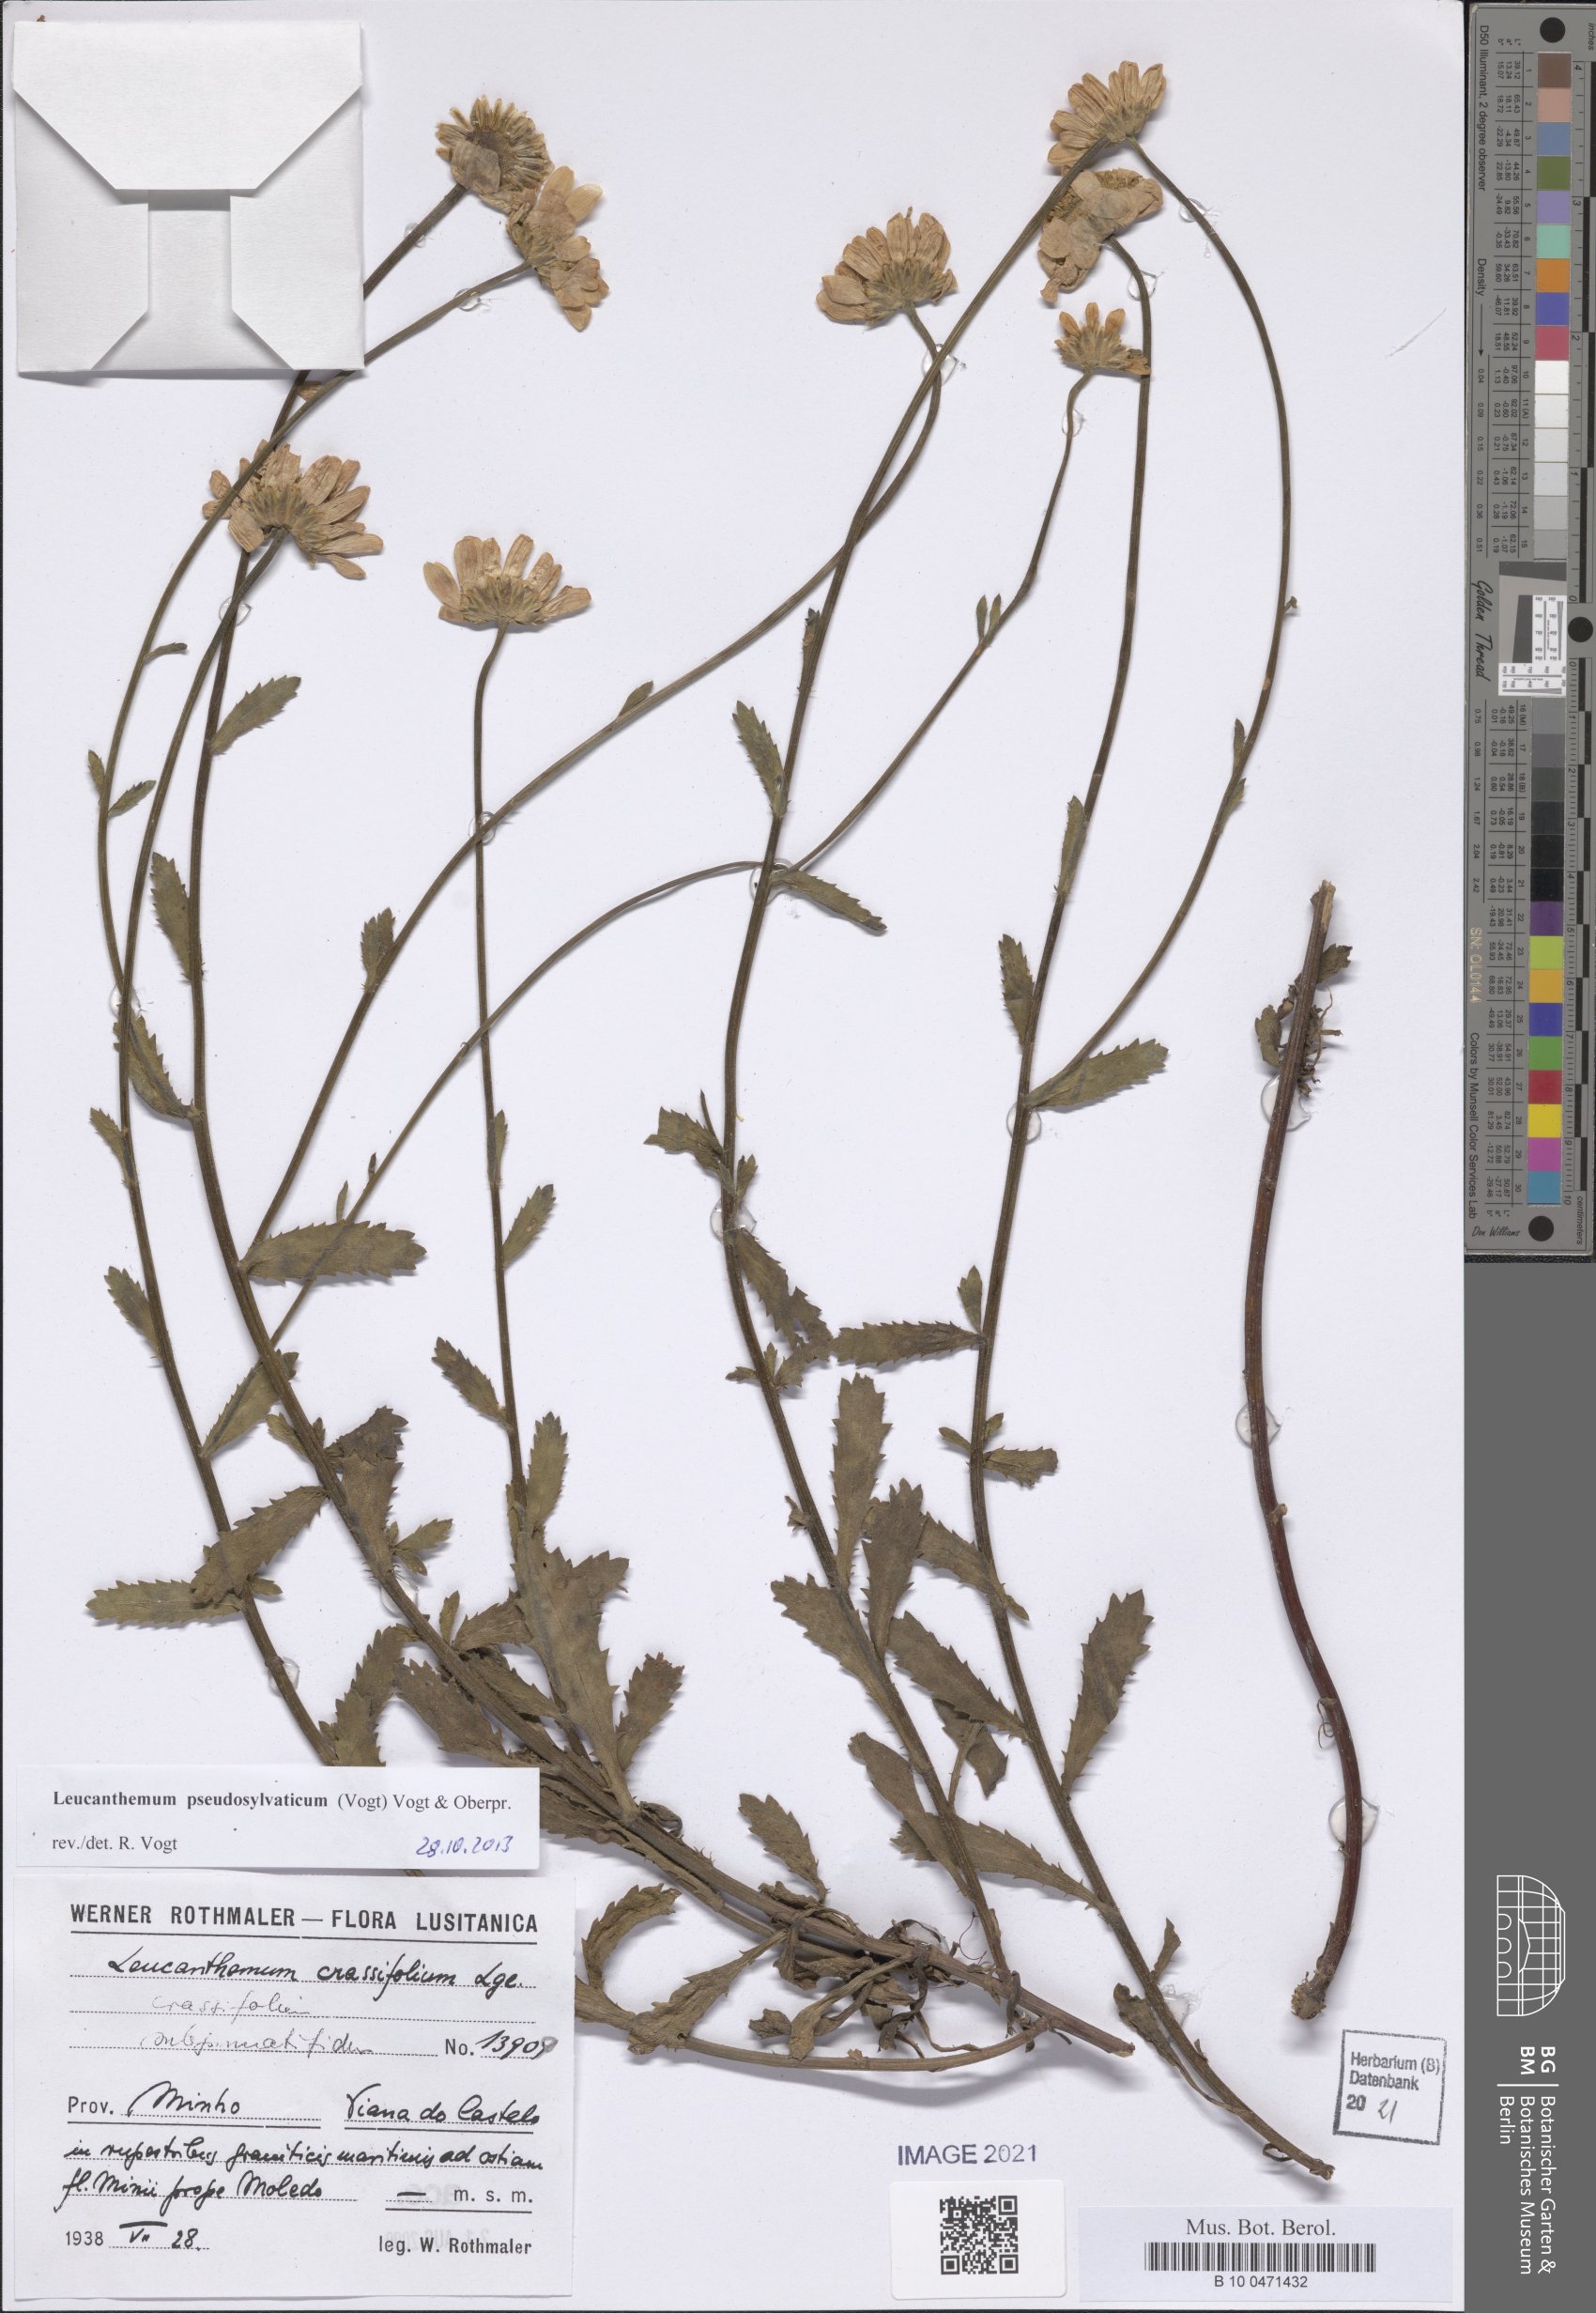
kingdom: Plantae
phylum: Tracheophyta
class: Magnoliopsida
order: Asterales
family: Asteraceae
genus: Leucanthemum
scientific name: Leucanthemum pseudosylvaticum
